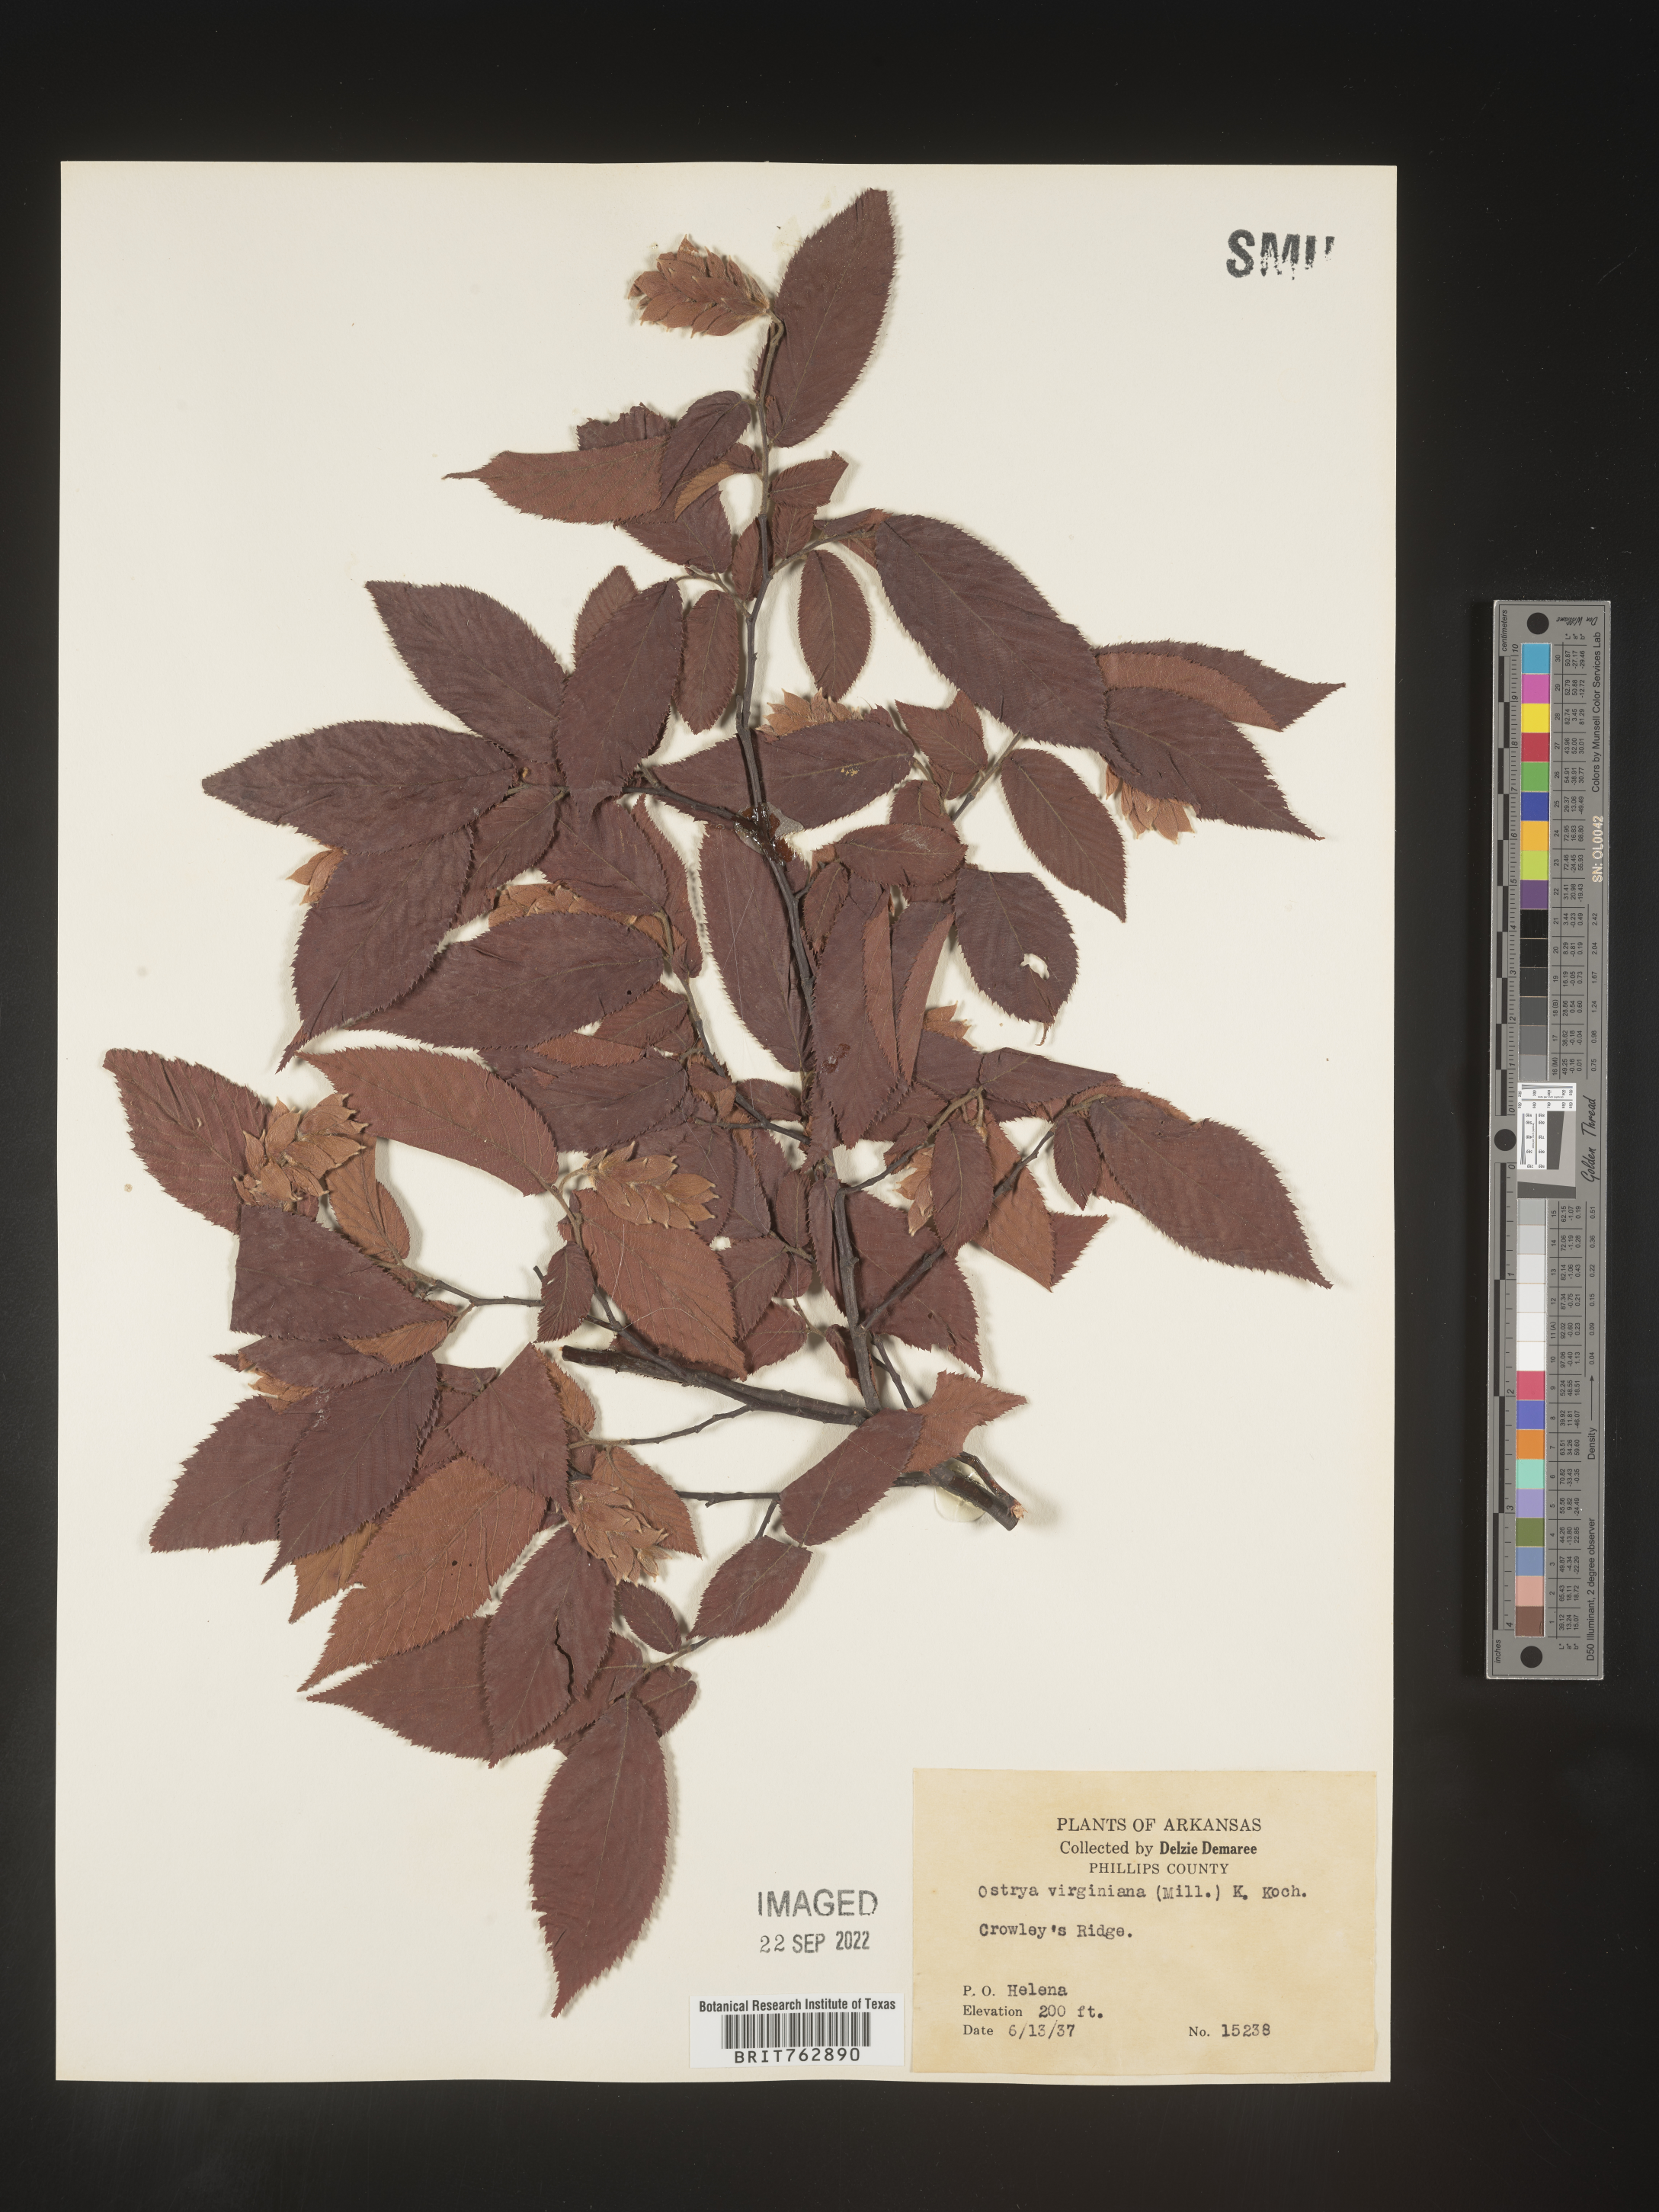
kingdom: Plantae
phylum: Tracheophyta
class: Magnoliopsida
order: Fagales
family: Betulaceae
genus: Ostrya
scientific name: Ostrya virginiana
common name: Ironwood
